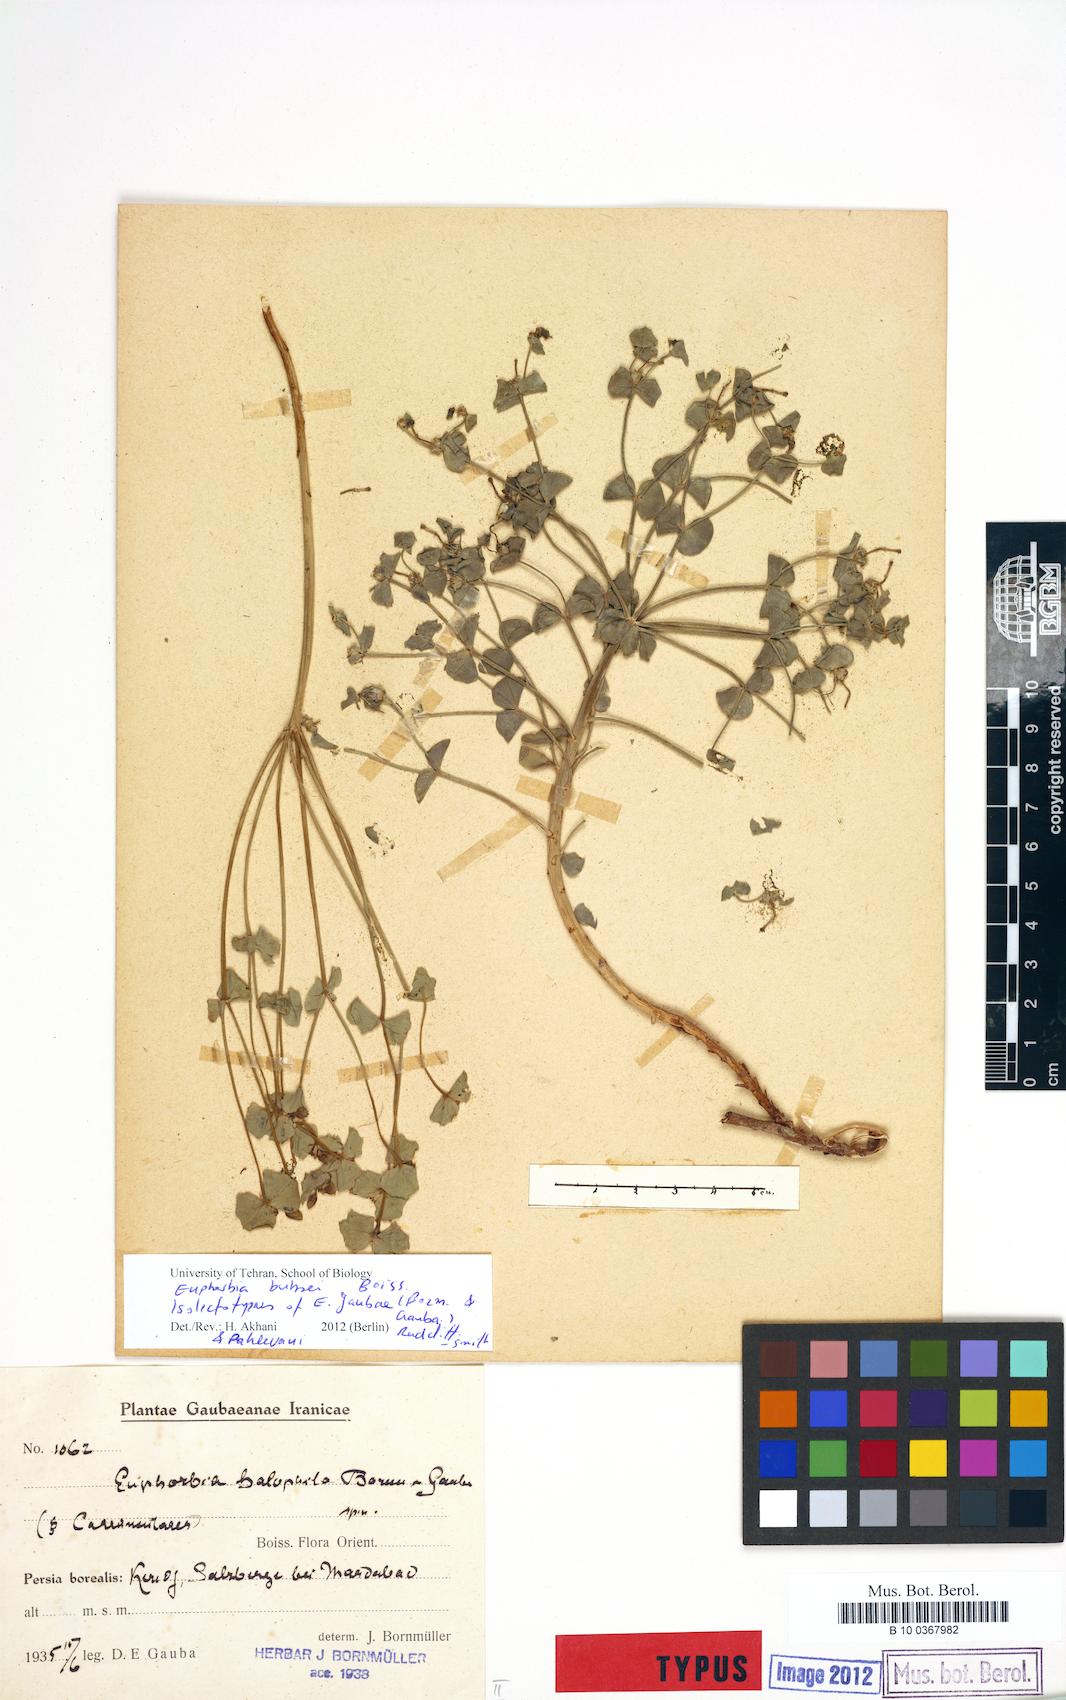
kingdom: Plantae
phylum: Tracheophyta
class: Magnoliopsida
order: Malpighiales
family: Euphorbiaceae
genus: Euphorbia
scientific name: Euphorbia buhsei
